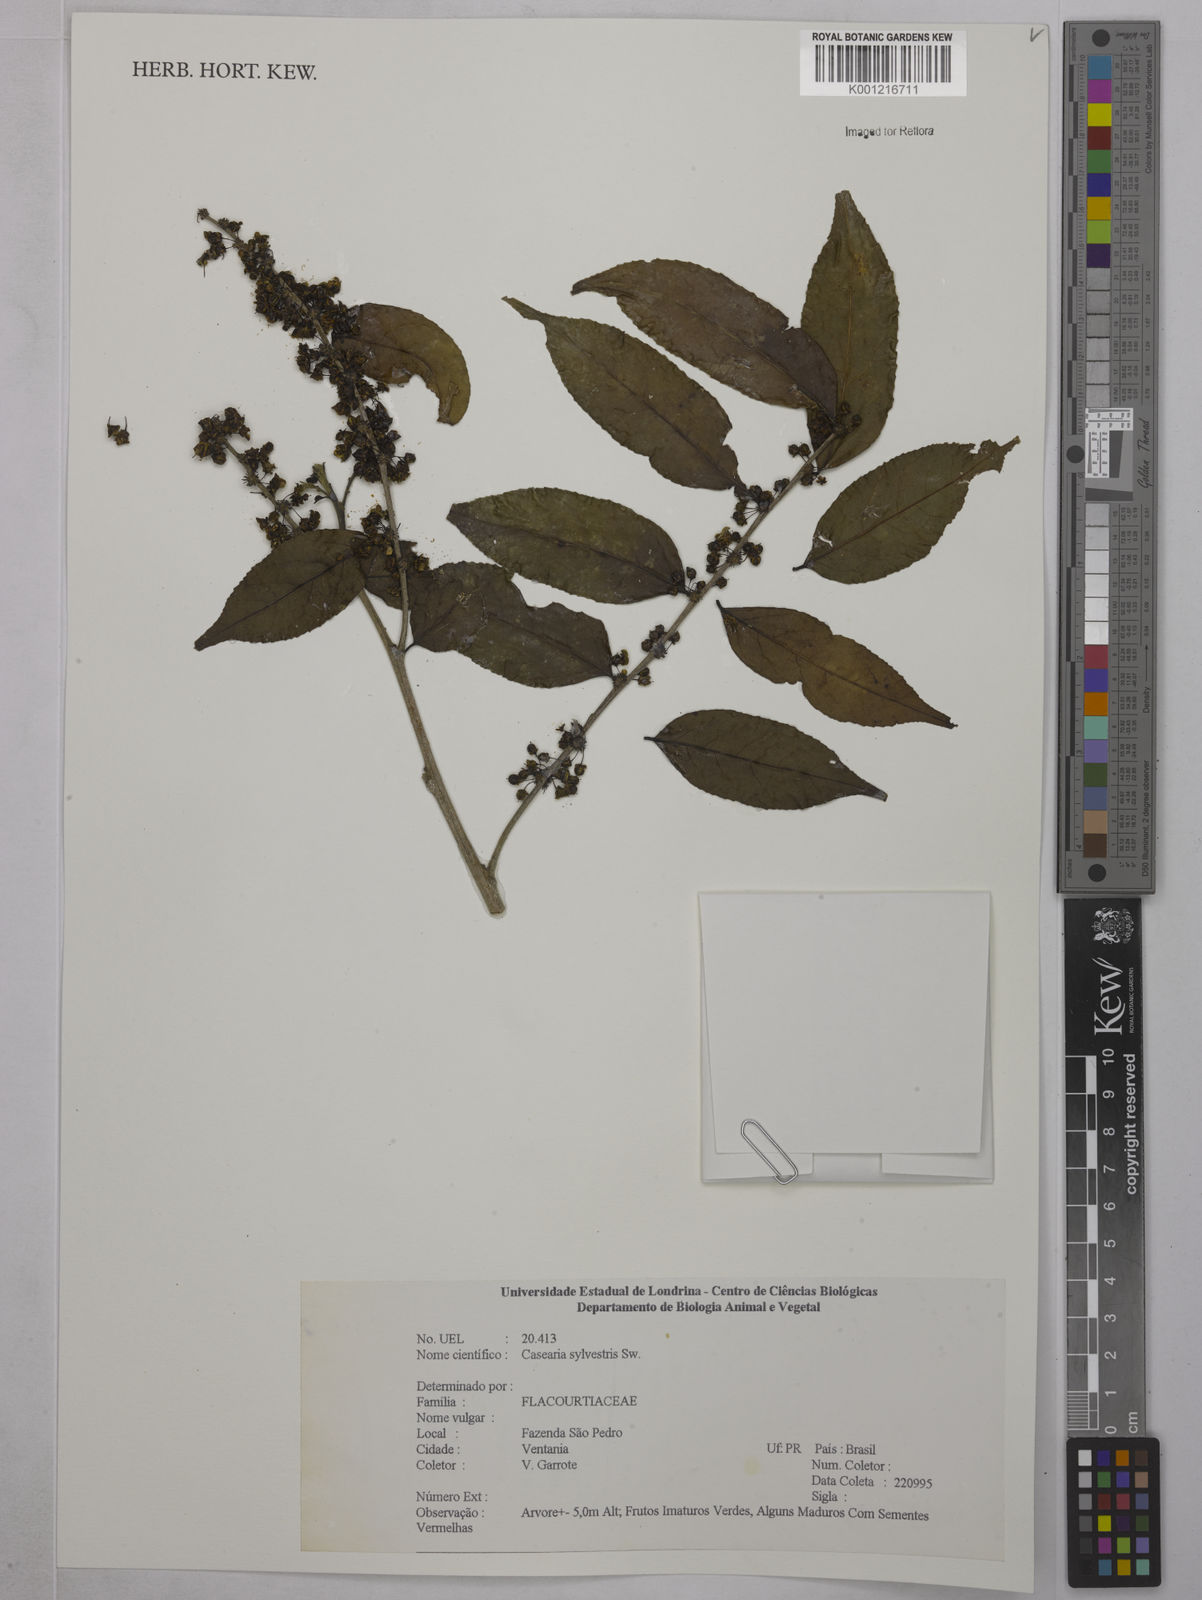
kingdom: Plantae
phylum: Tracheophyta
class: Magnoliopsida
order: Malpighiales
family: Salicaceae
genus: Casearia
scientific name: Casearia sylvestris
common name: Wild sage
